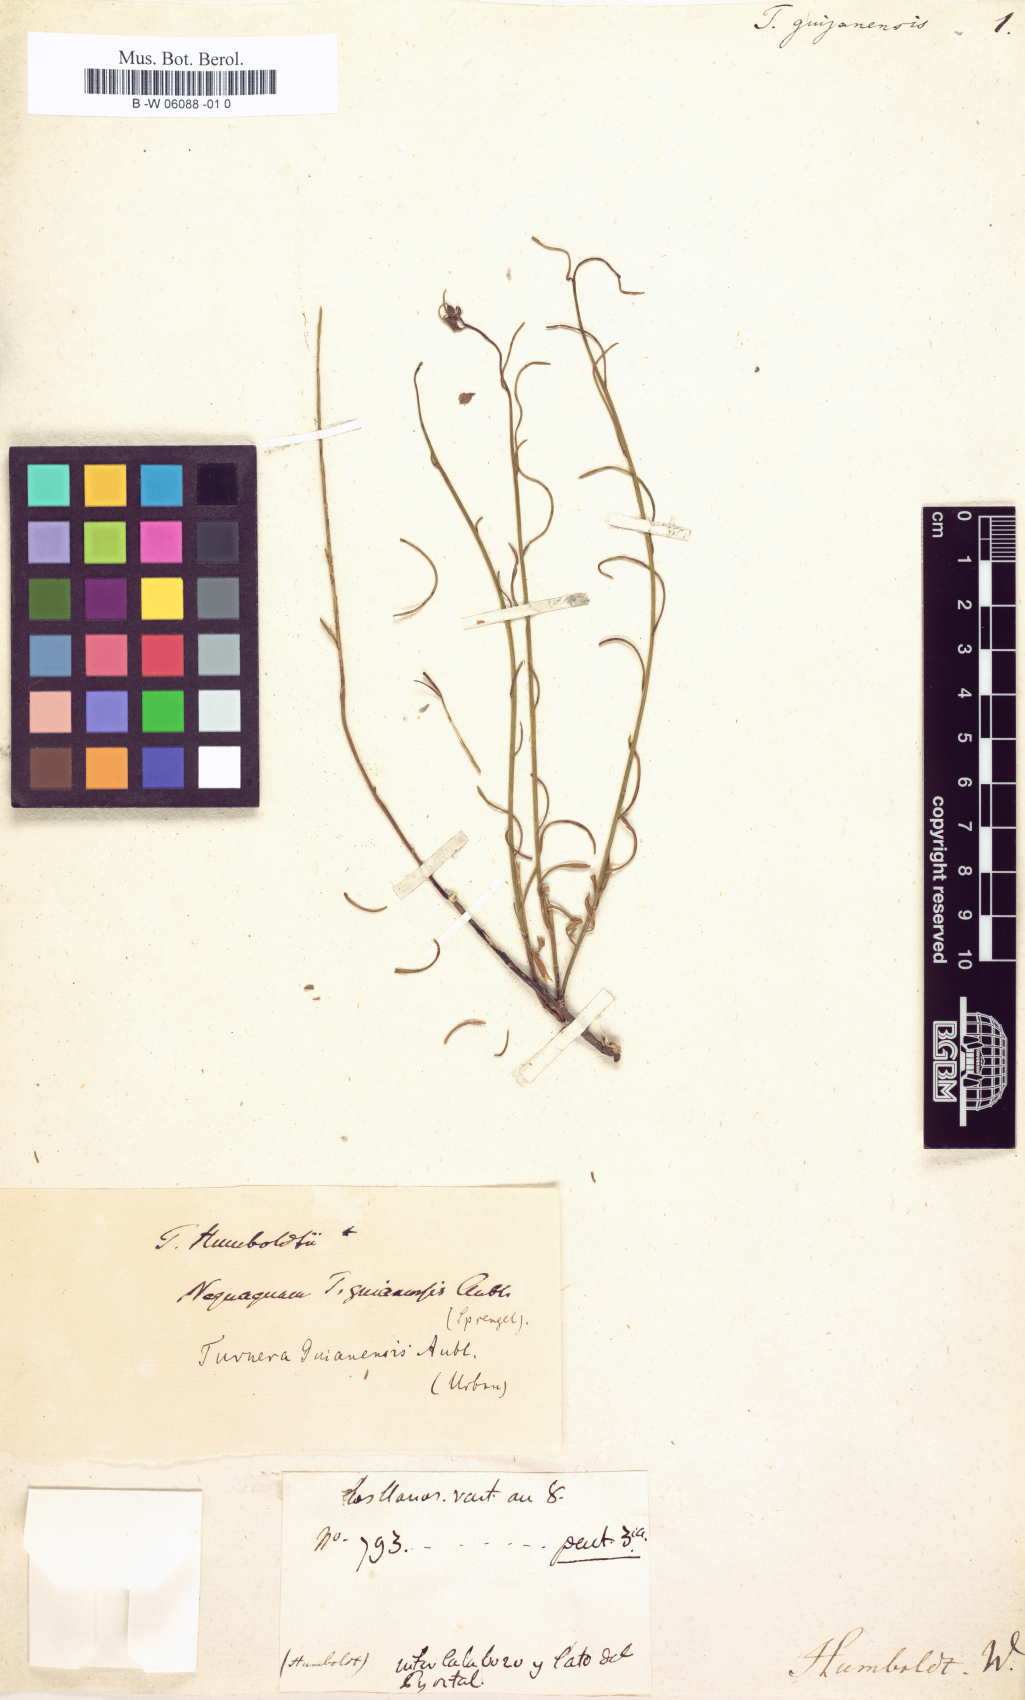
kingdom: Plantae
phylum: Tracheophyta
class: Magnoliopsida
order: Malpighiales
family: Turneraceae
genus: Turnera
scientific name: Turnera guianensis
